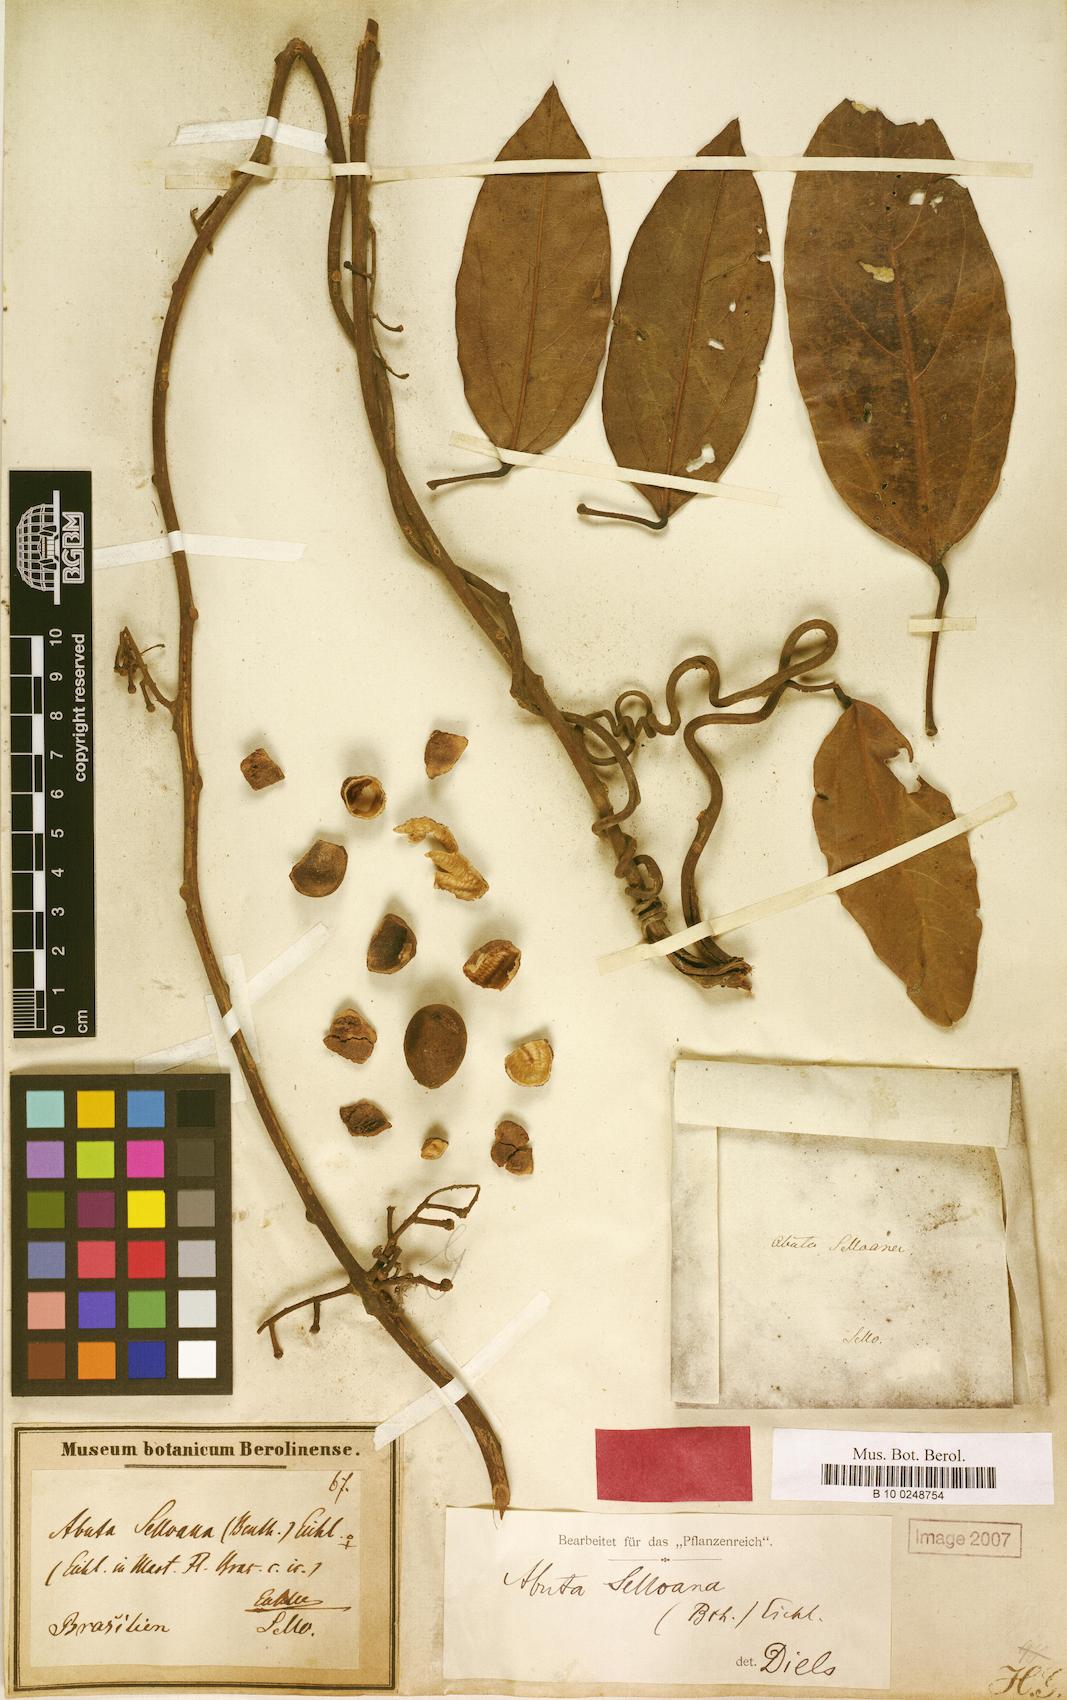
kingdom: Plantae
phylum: Tracheophyta
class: Magnoliopsida
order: Ranunculales
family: Menispermaceae
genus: Abuta
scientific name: Abuta selloana
